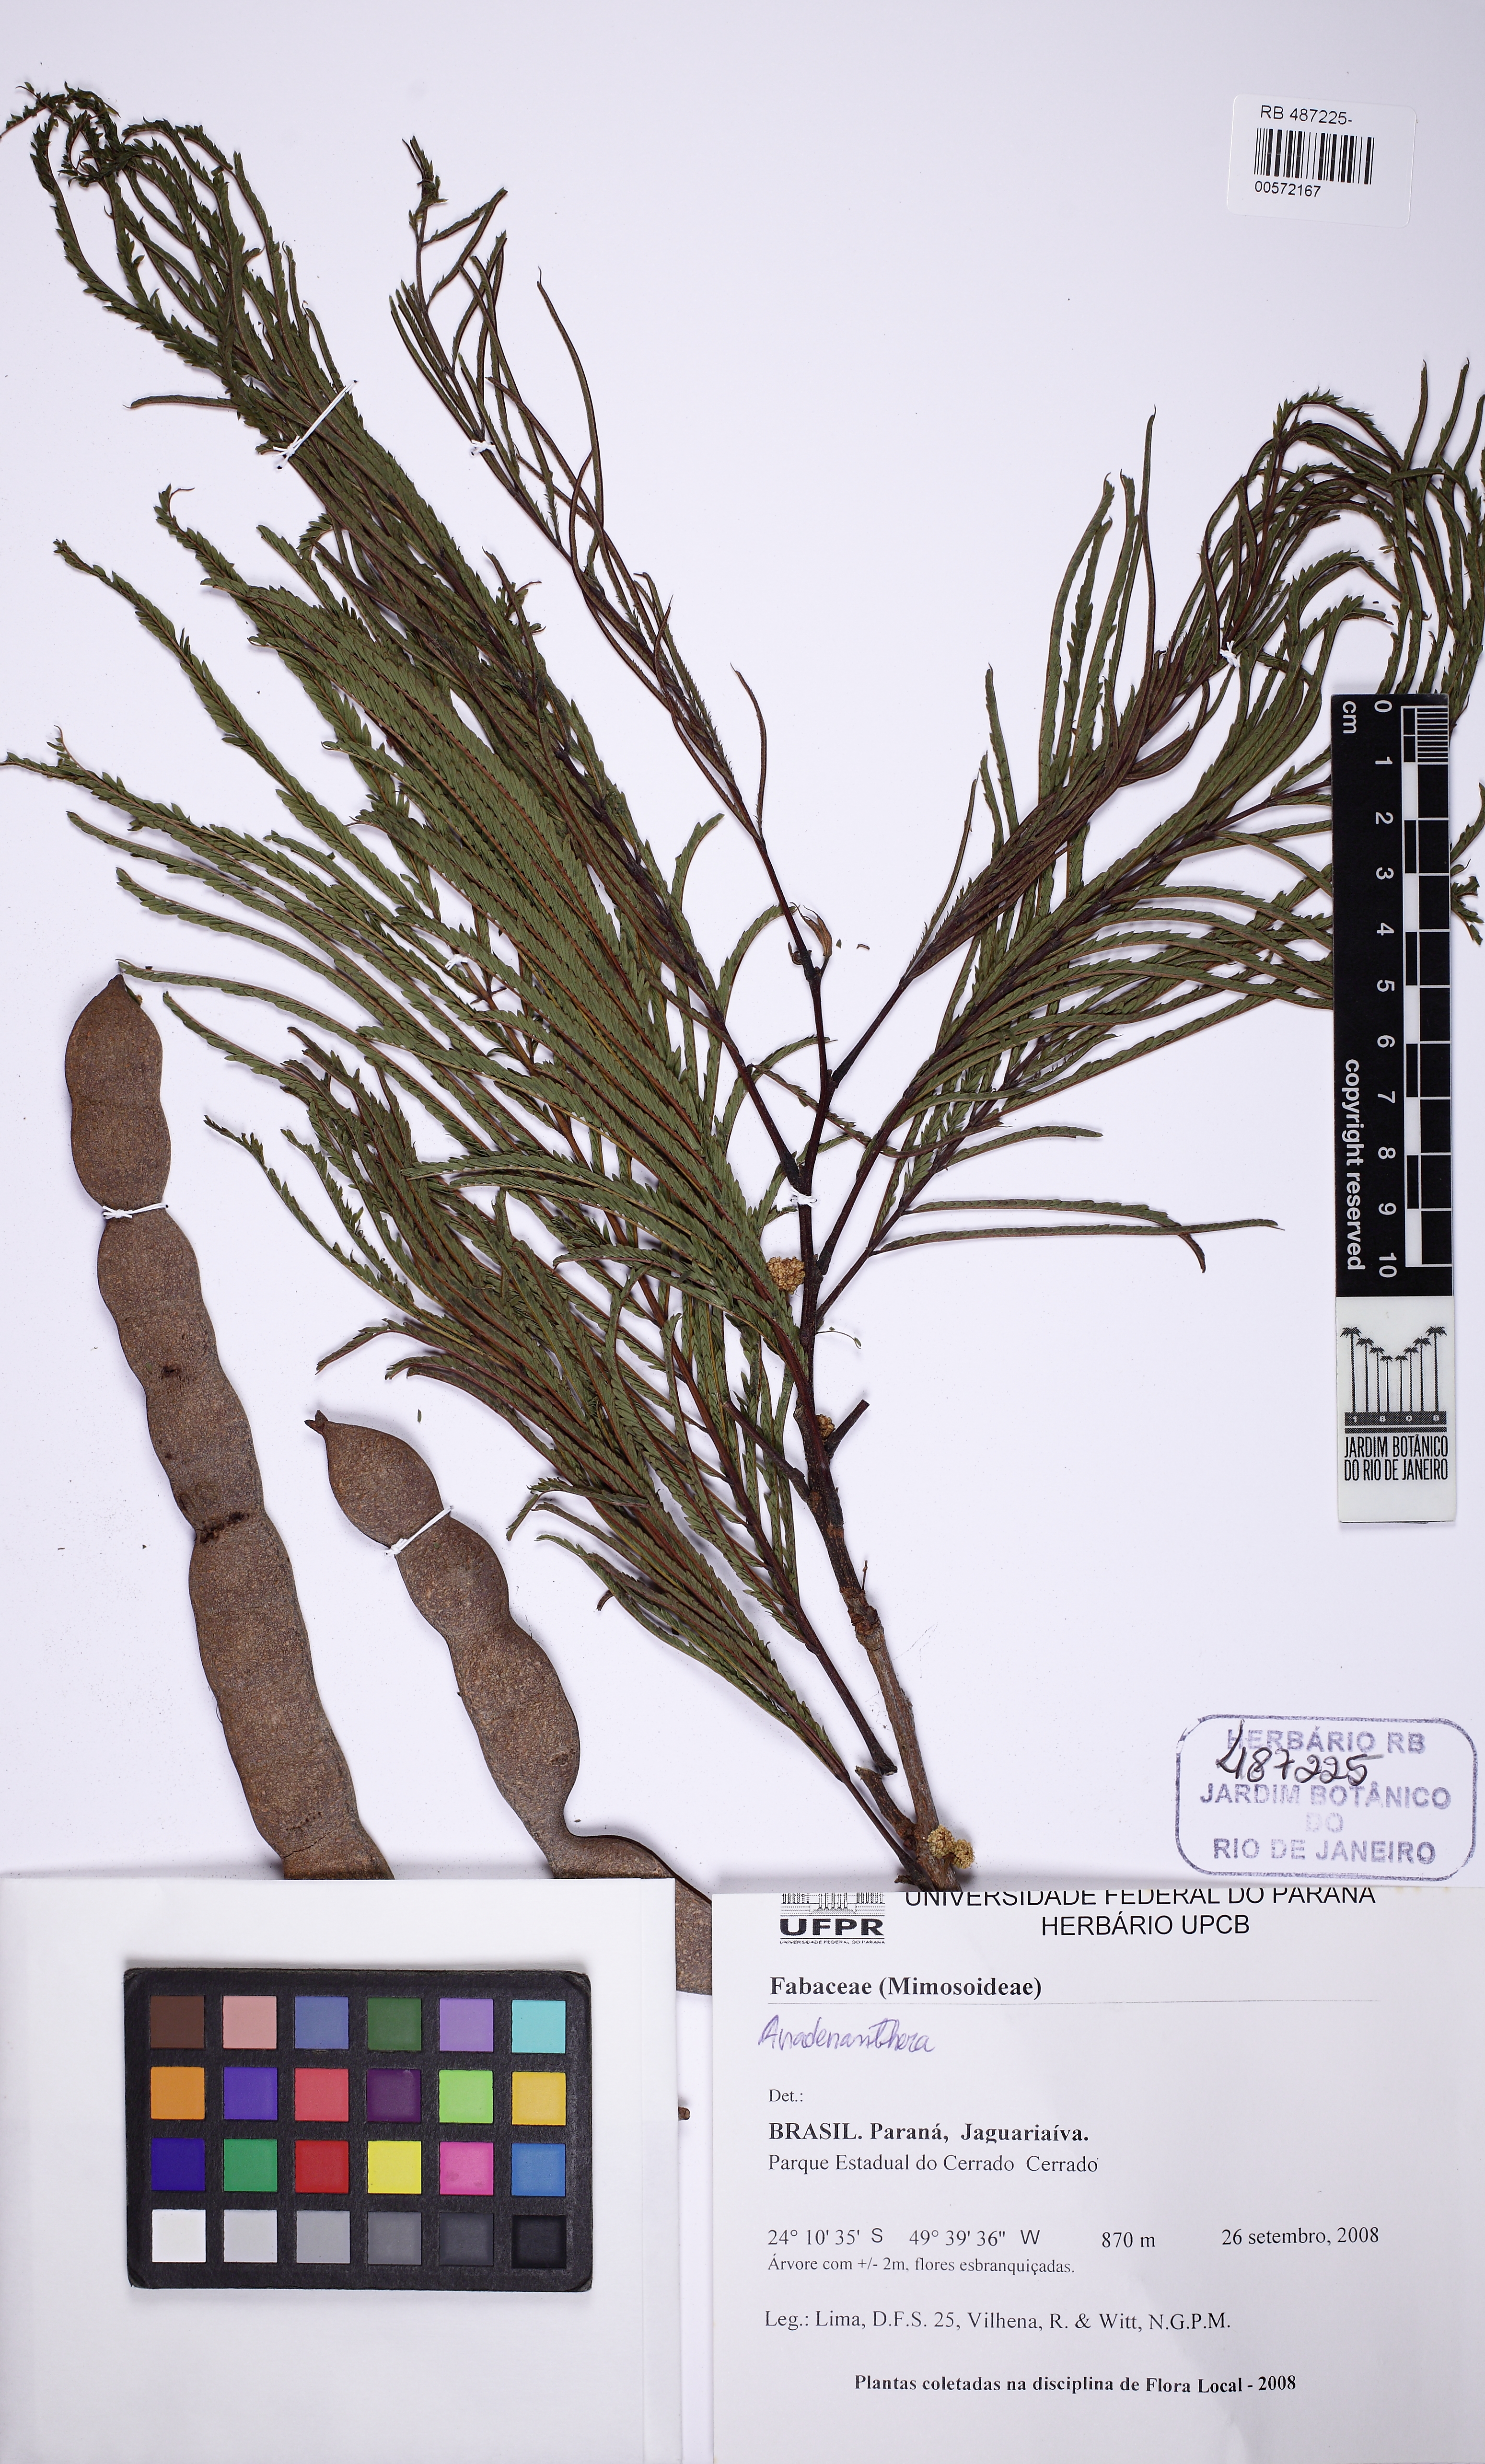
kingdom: Plantae
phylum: Tracheophyta
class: Magnoliopsida
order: Fabales
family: Fabaceae
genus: Anadenanthera
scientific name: Anadenanthera peregrina
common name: Cohoba
